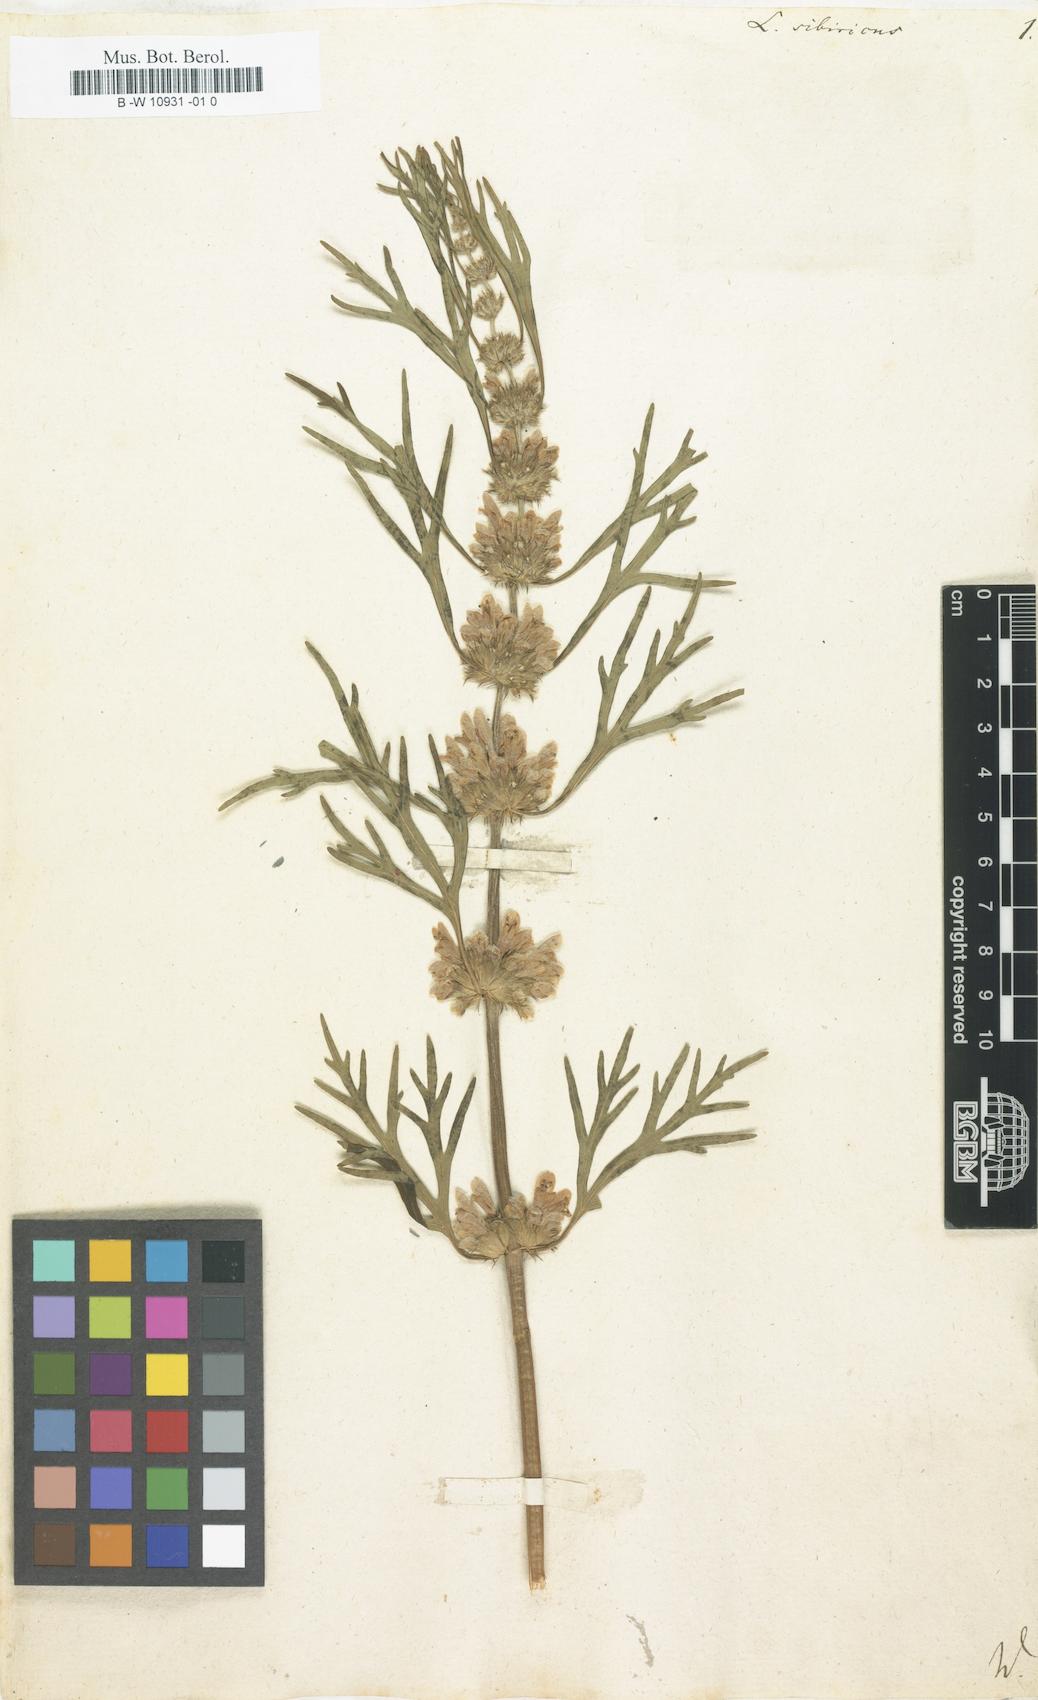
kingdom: Plantae
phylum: Tracheophyta
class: Magnoliopsida
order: Lamiales
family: Lamiaceae
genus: Leonurus
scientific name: Leonurus sibiricus
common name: Honeyweed
